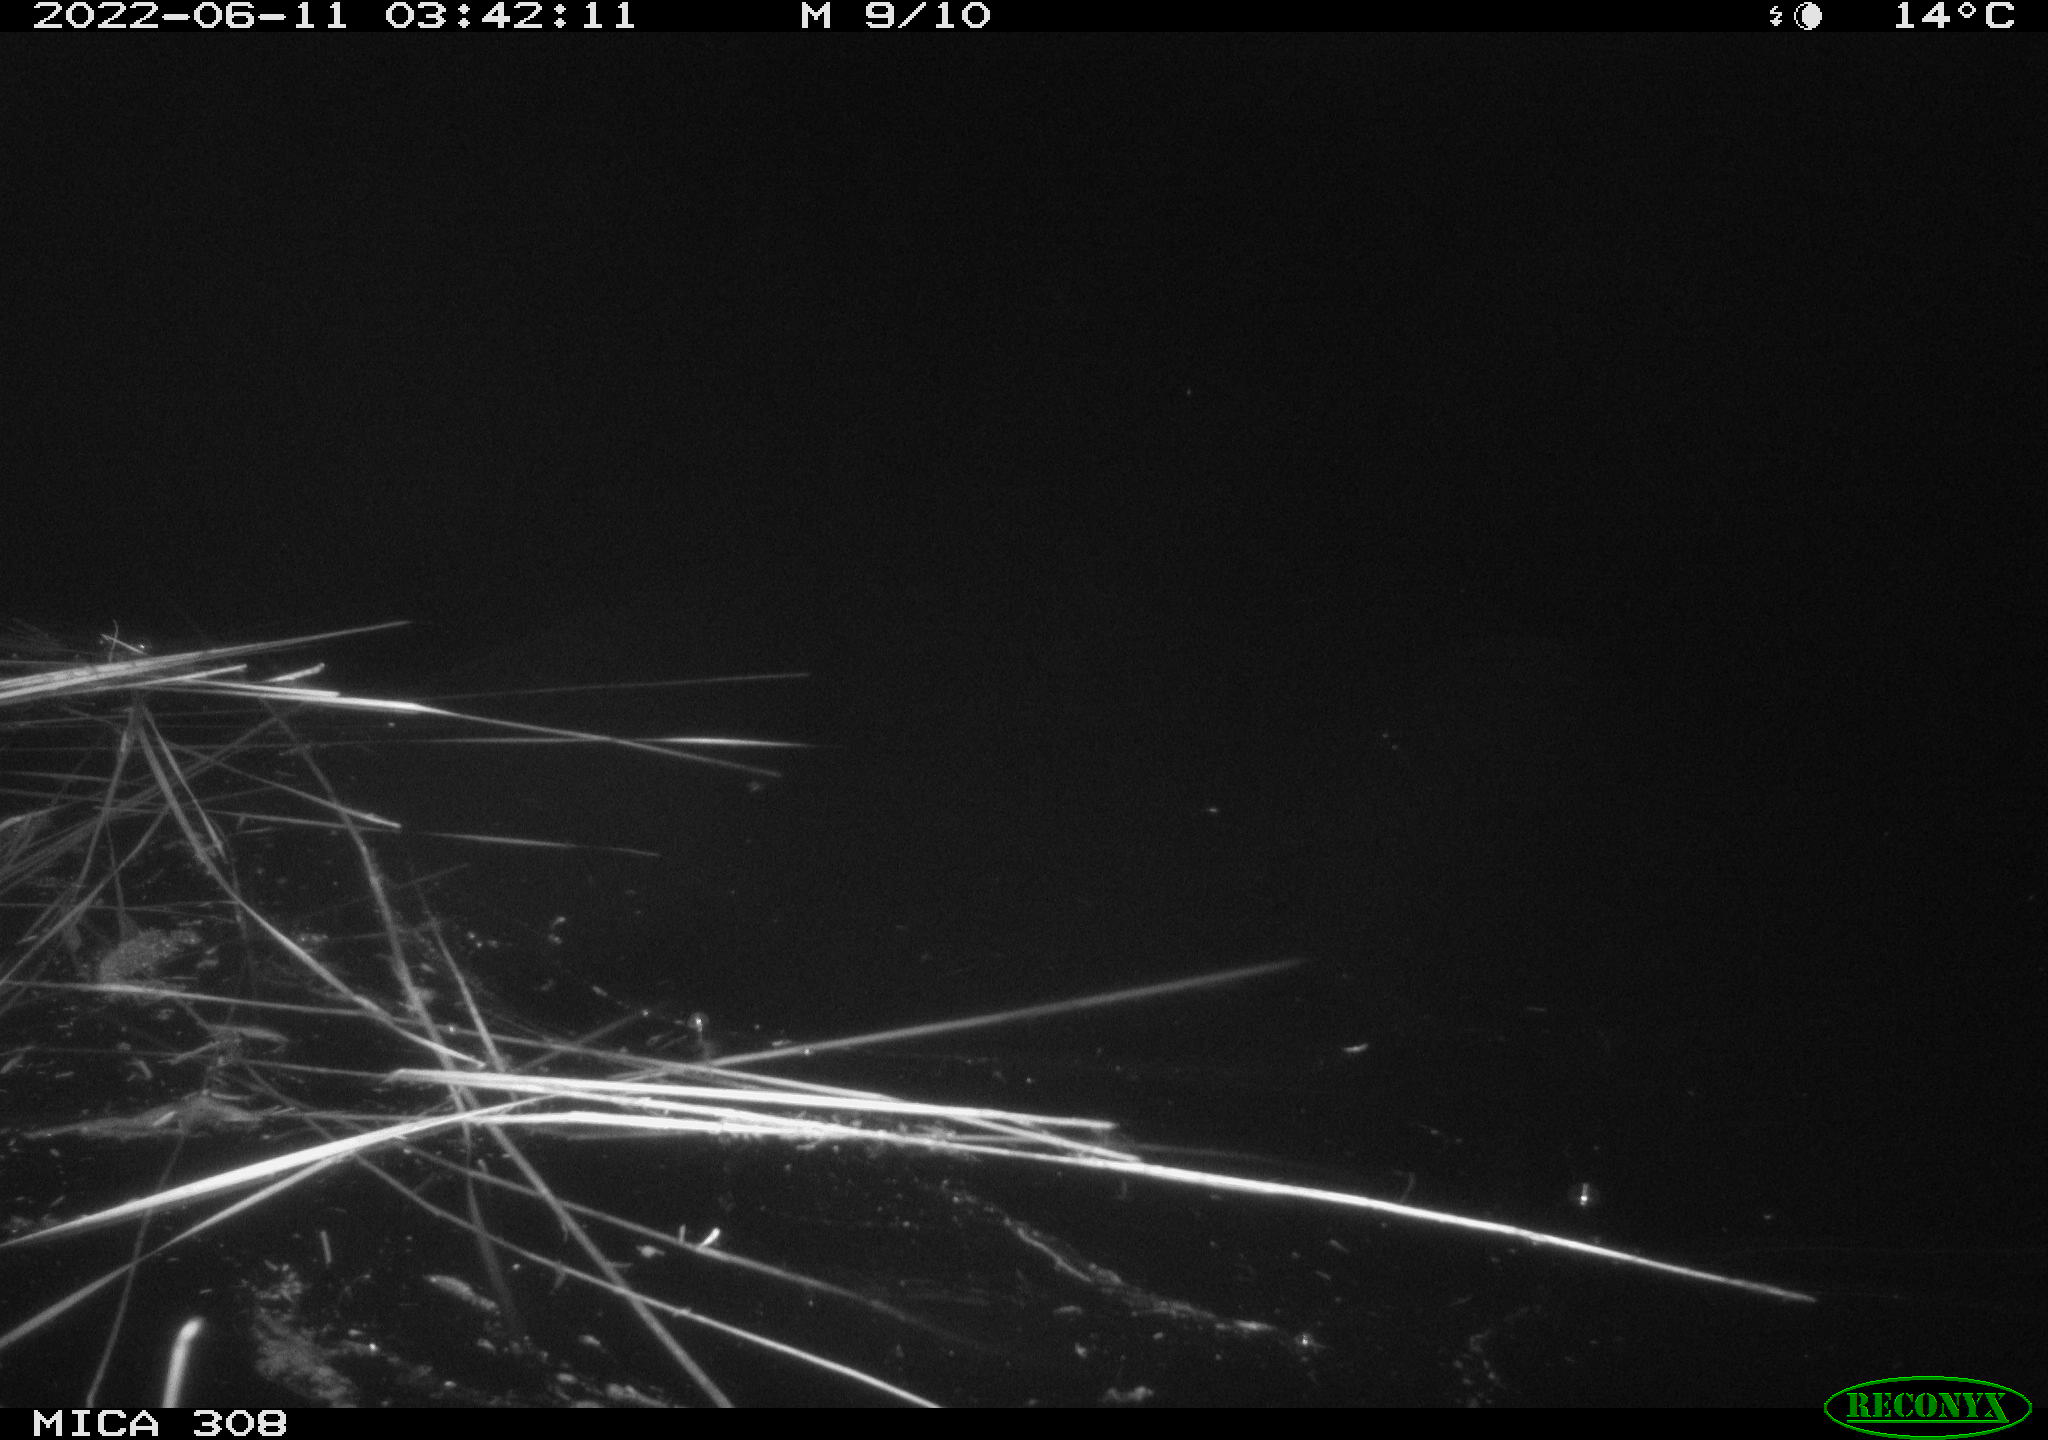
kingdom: Animalia
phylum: Chordata
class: Aves
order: Anseriformes
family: Anatidae
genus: Anas
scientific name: Anas platyrhynchos
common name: Mallard
